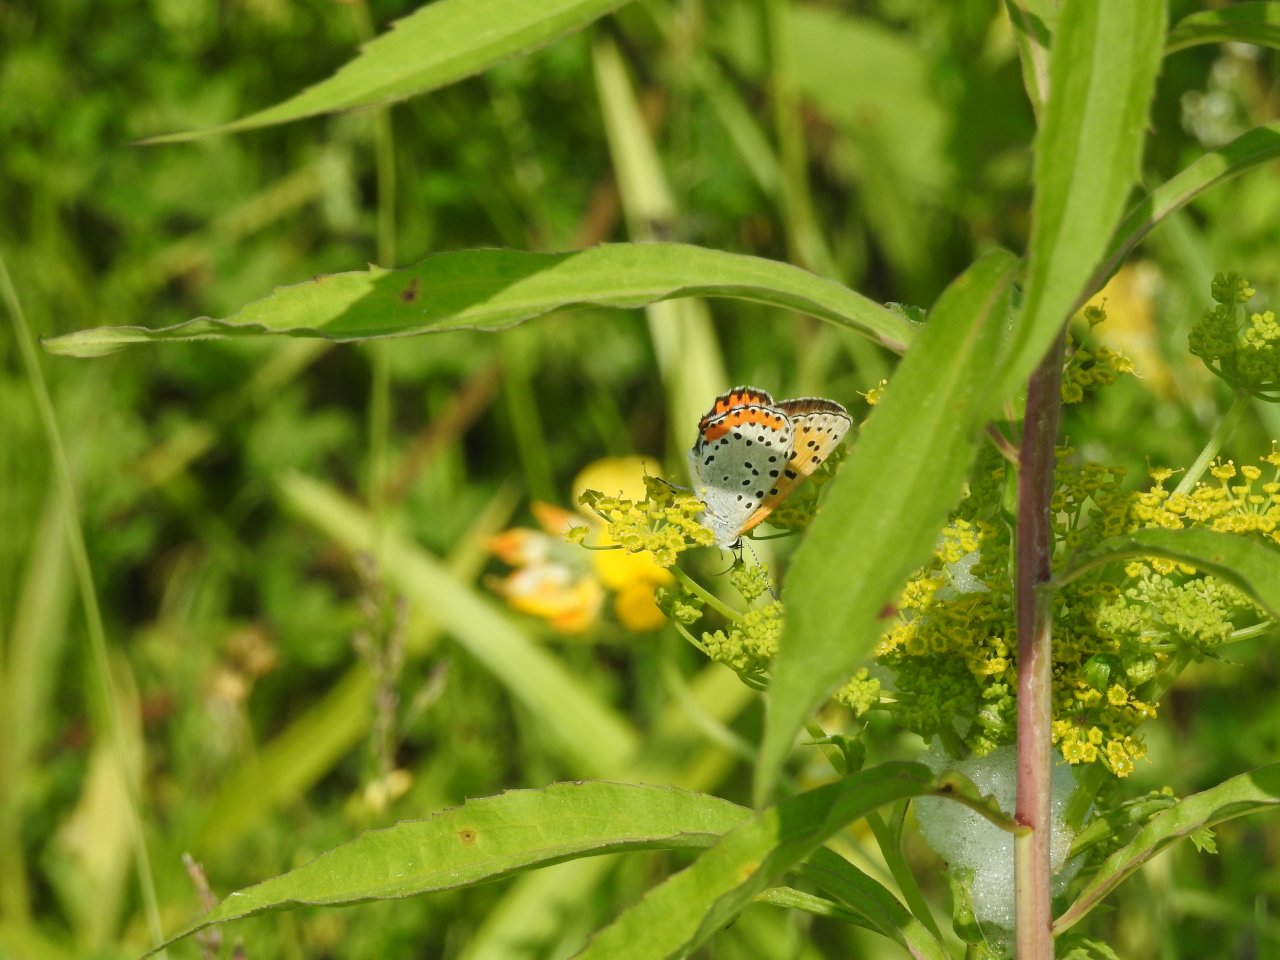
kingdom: Animalia
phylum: Arthropoda
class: Insecta
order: Lepidoptera
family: Sesiidae
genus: Sesia
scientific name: Sesia Lycaena hyllus
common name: Bronze Copper
